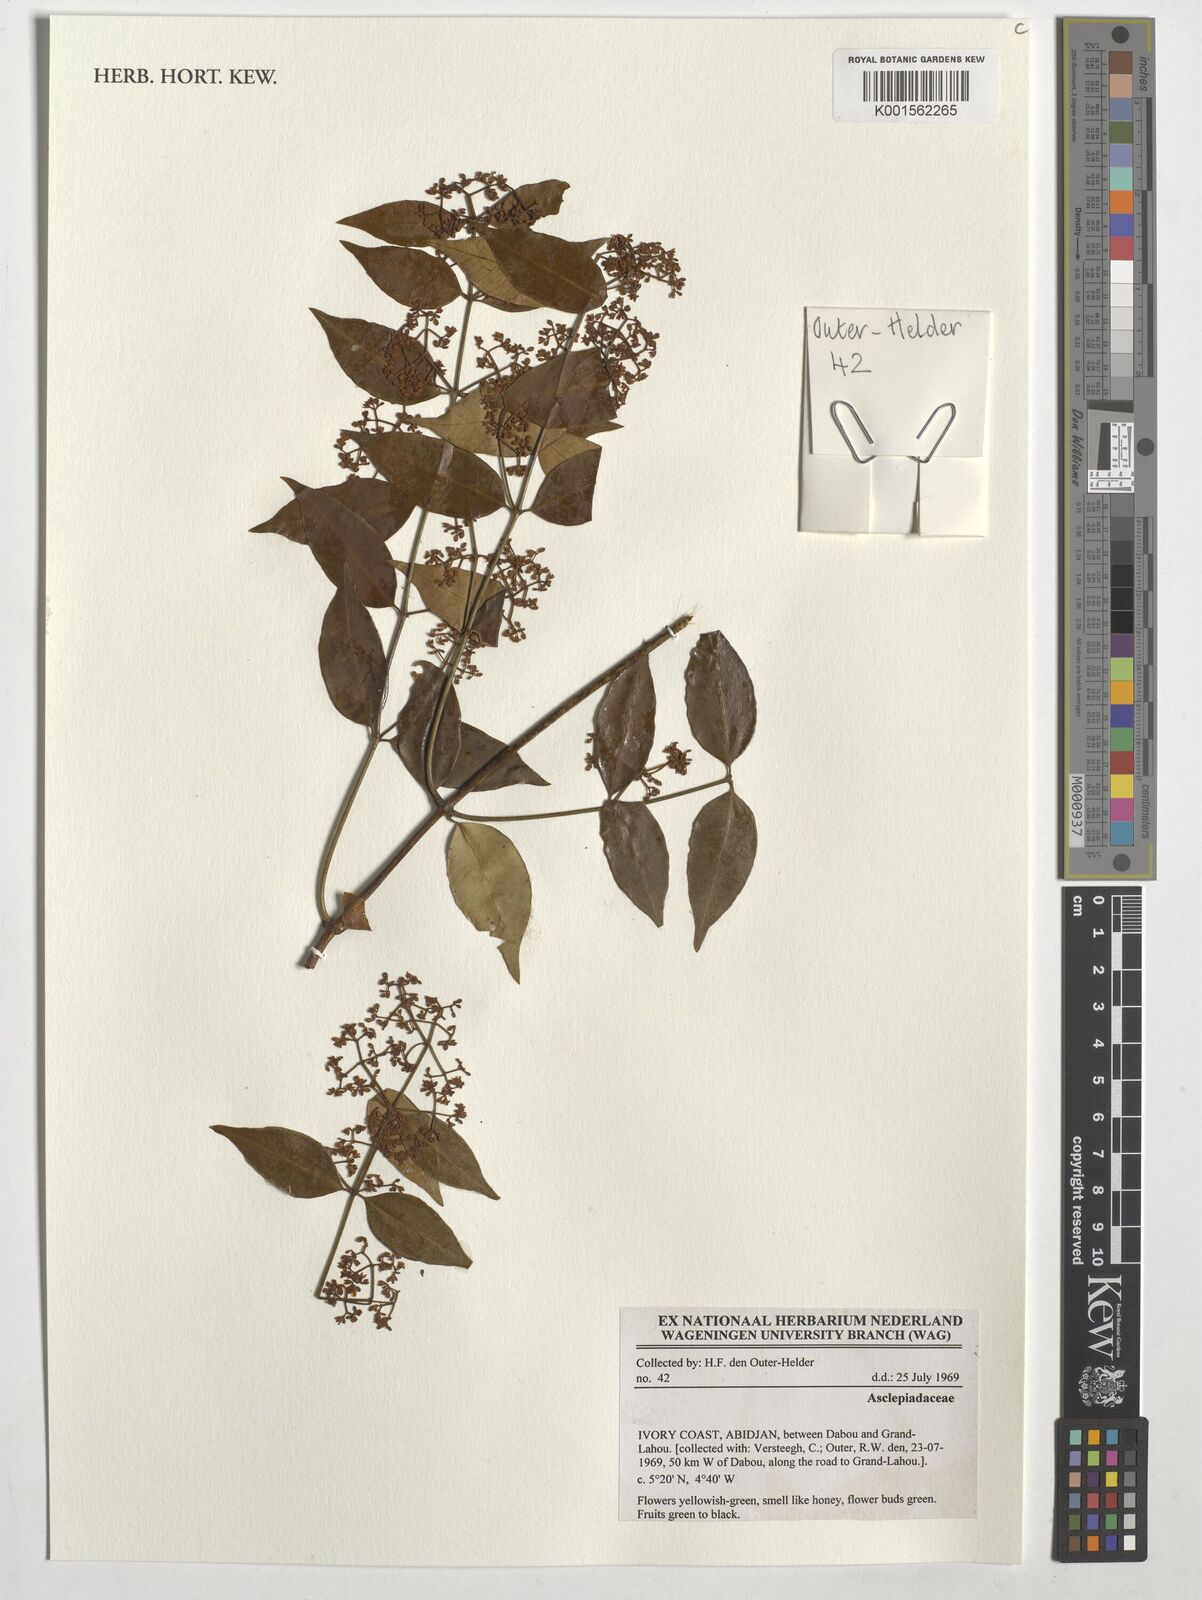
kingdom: Plantae
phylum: Tracheophyta
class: Magnoliopsida
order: Gentianales
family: Asclepiadaceae
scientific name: Asclepiadaceae
